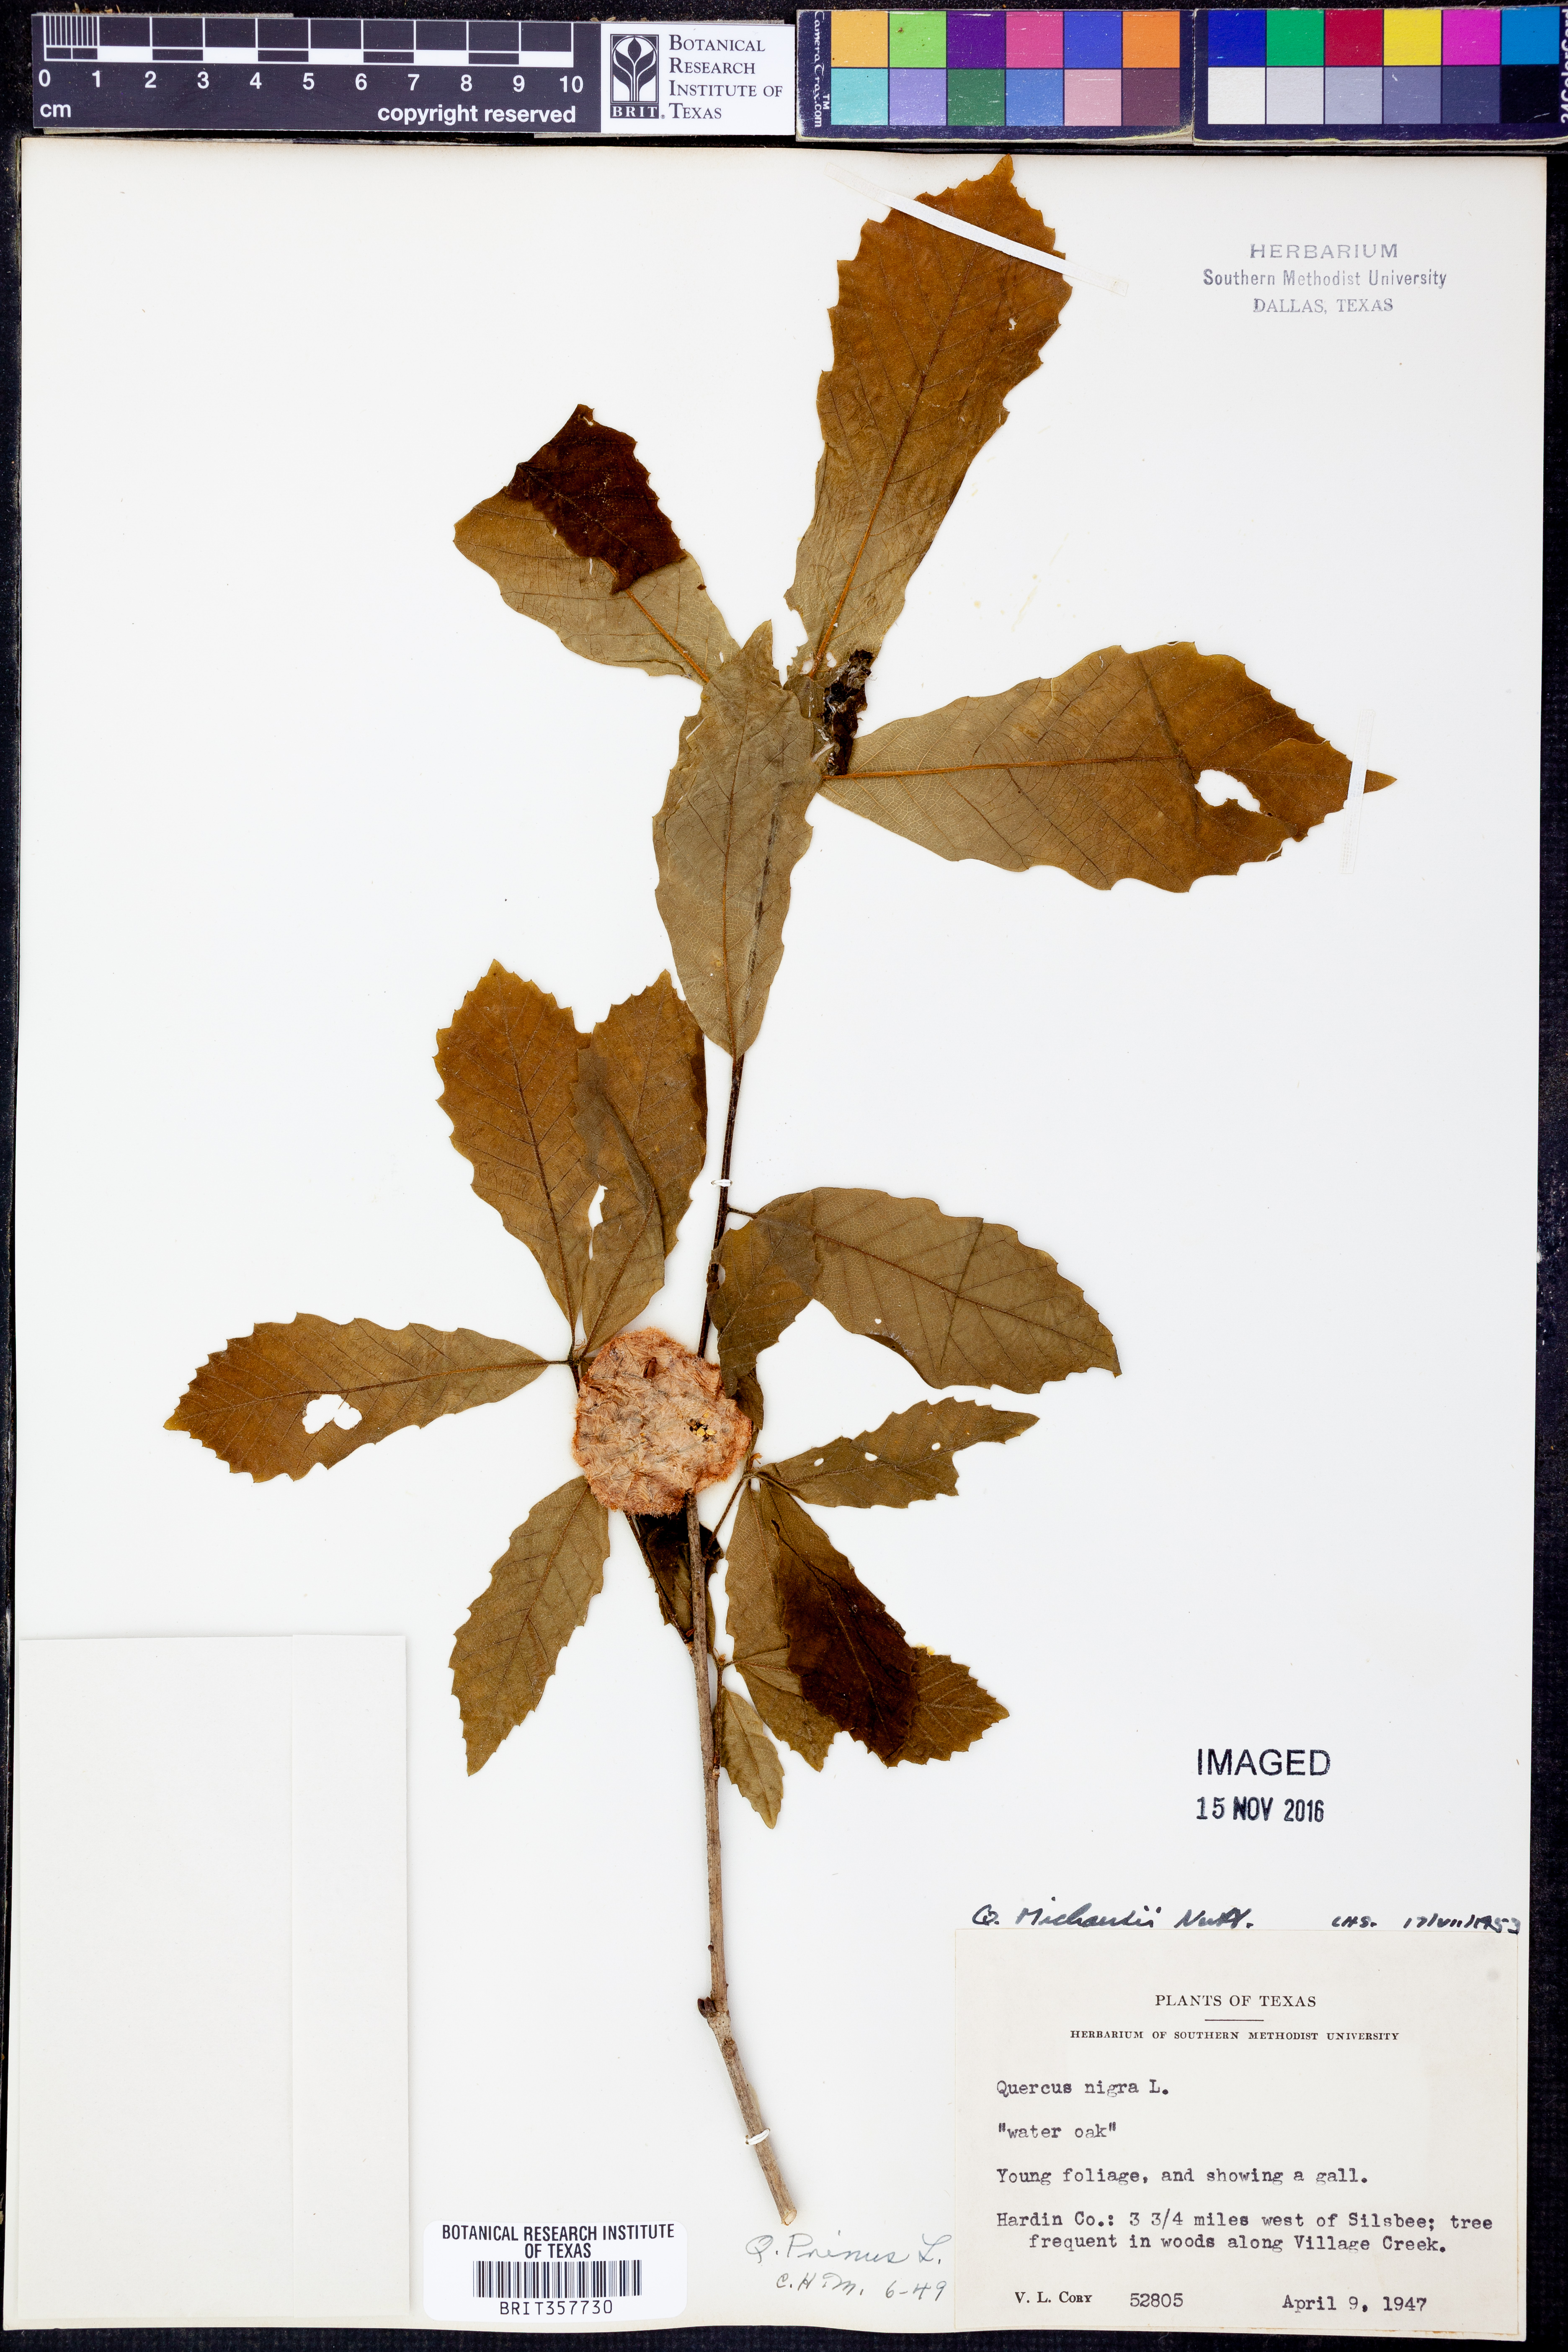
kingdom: Plantae
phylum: Tracheophyta
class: Magnoliopsida
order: Fagales
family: Fagaceae
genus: Quercus
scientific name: Quercus michauxii
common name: Swamp chestnut oak
